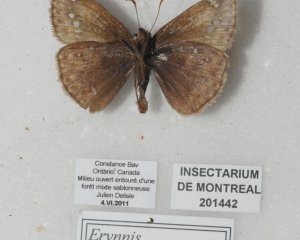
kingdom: Animalia
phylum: Arthropoda
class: Insecta
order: Lepidoptera
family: Hesperiidae
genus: Gesta
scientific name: Gesta
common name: Juvenal's Duskywing
